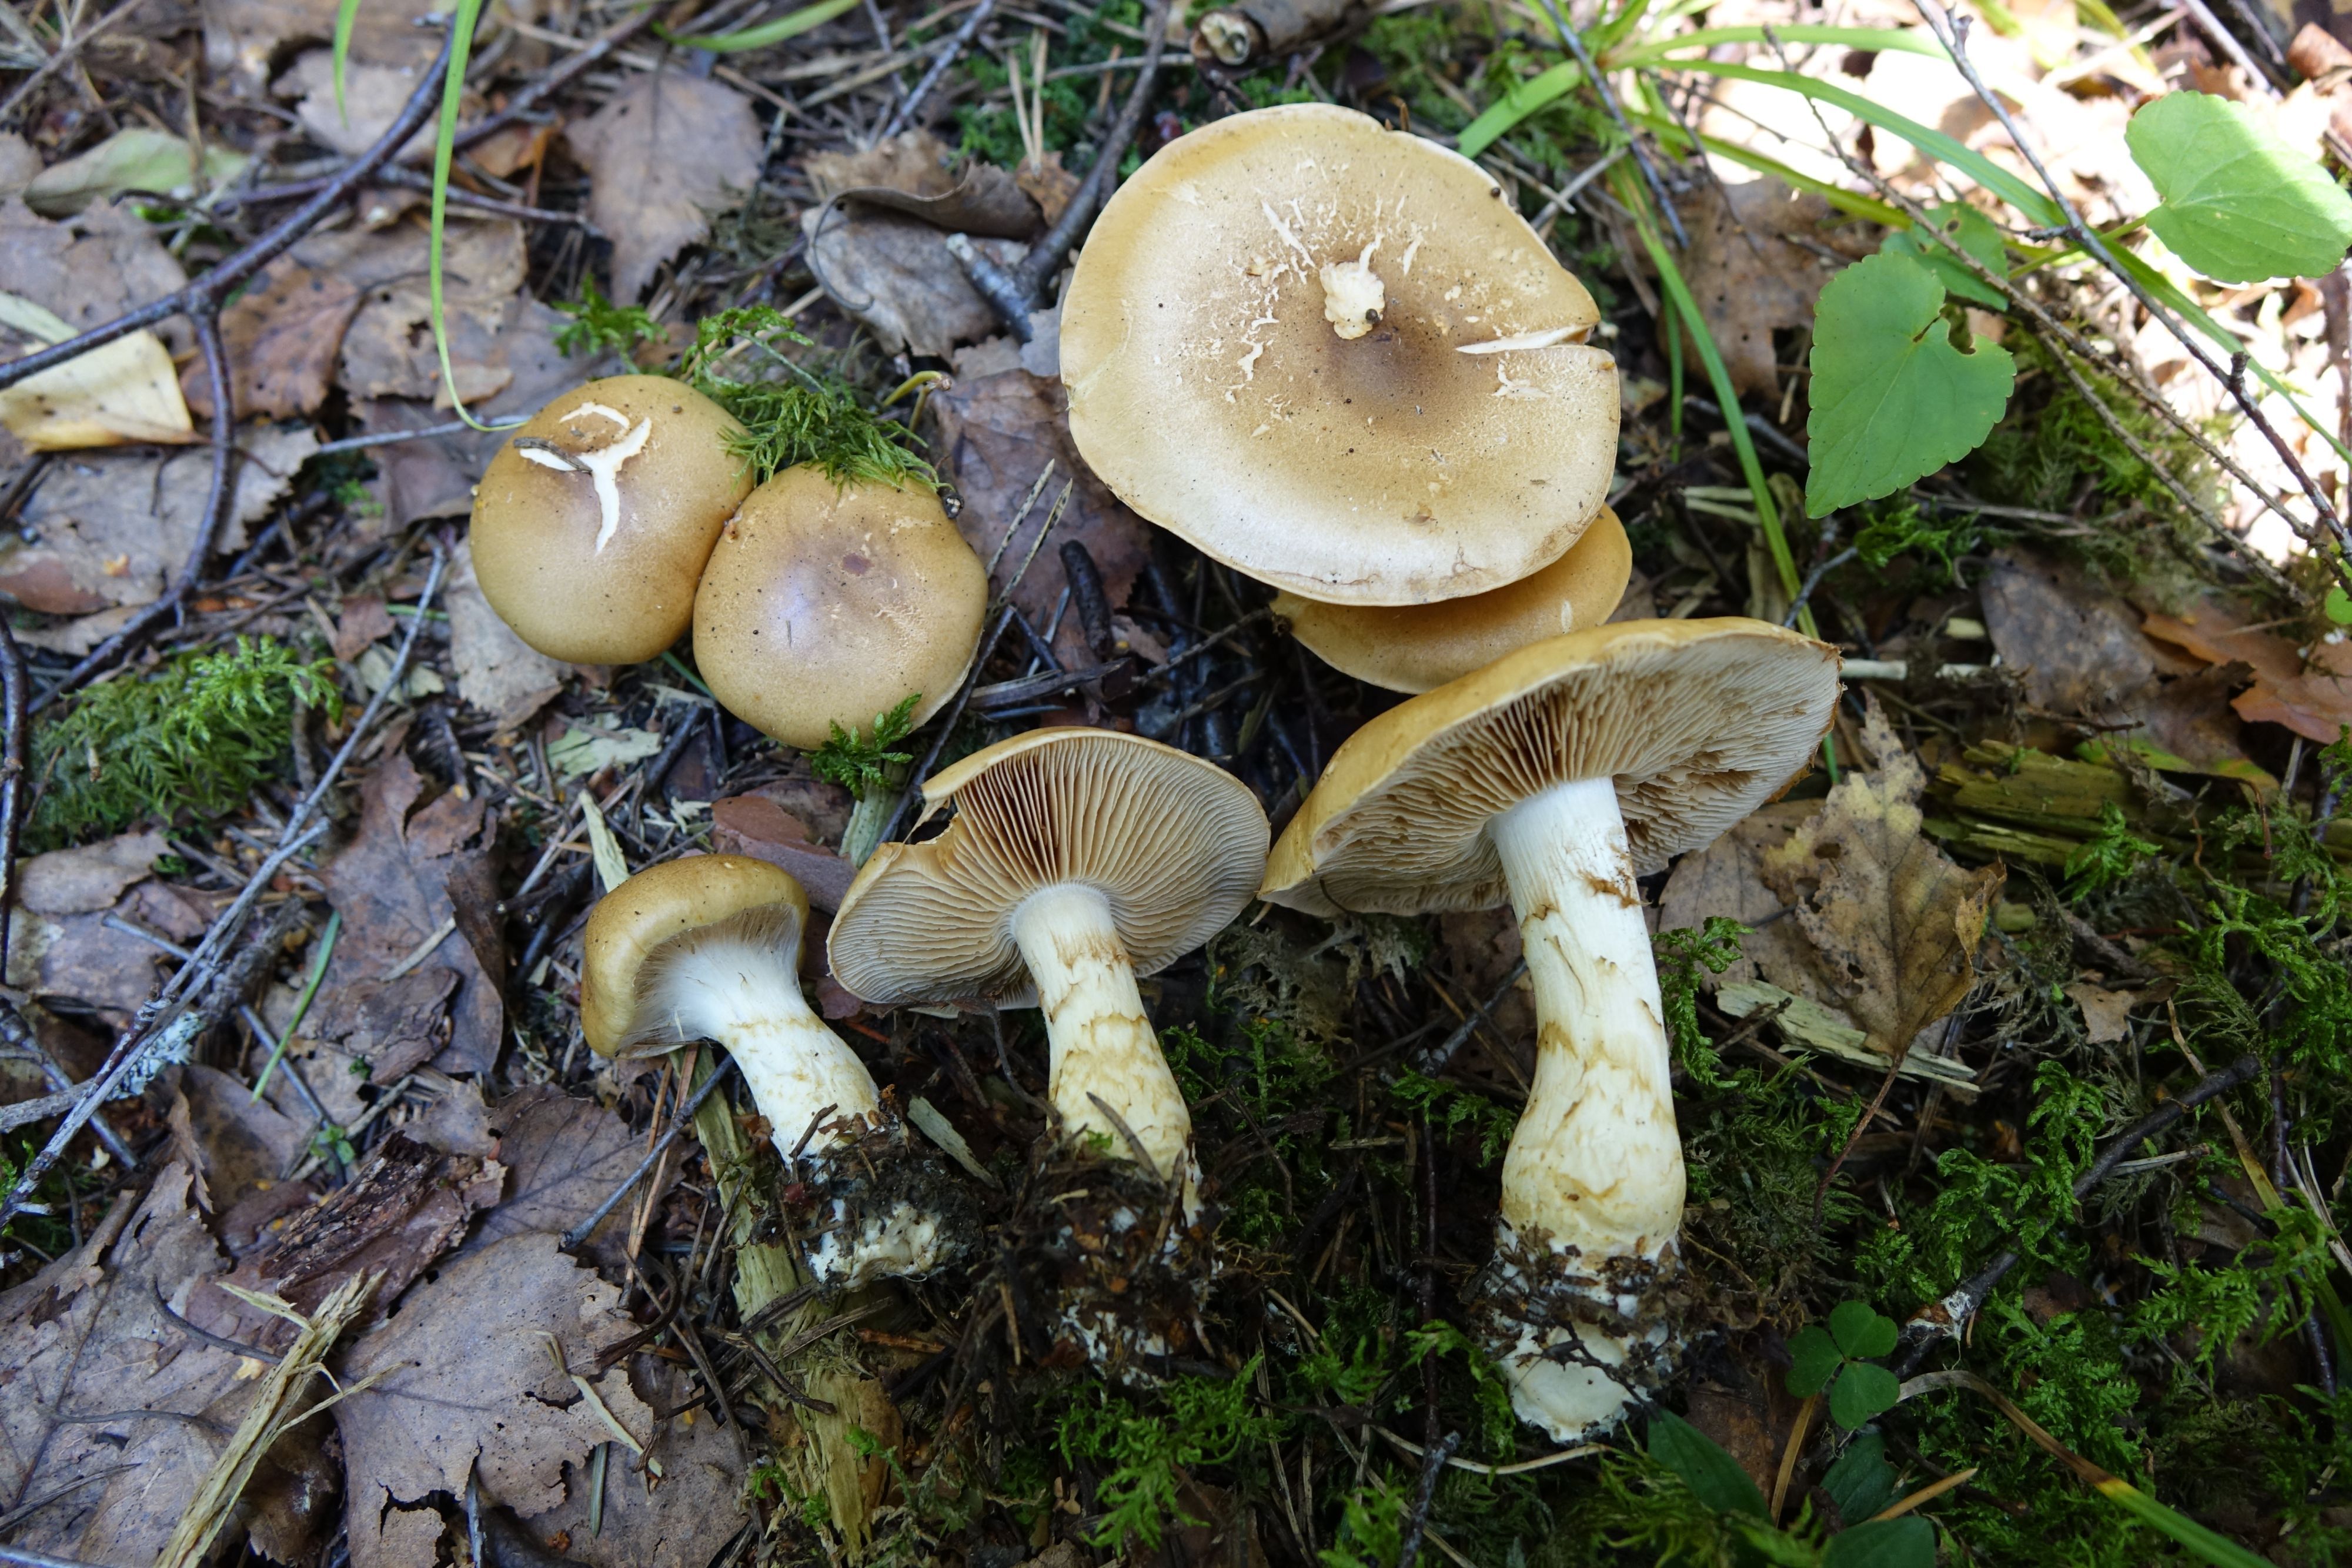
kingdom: Fungi
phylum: Basidiomycota
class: Agaricomycetes
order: Agaricales
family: Cortinariaceae
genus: Phlegmacium
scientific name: Phlegmacium ochraceobrunneum
